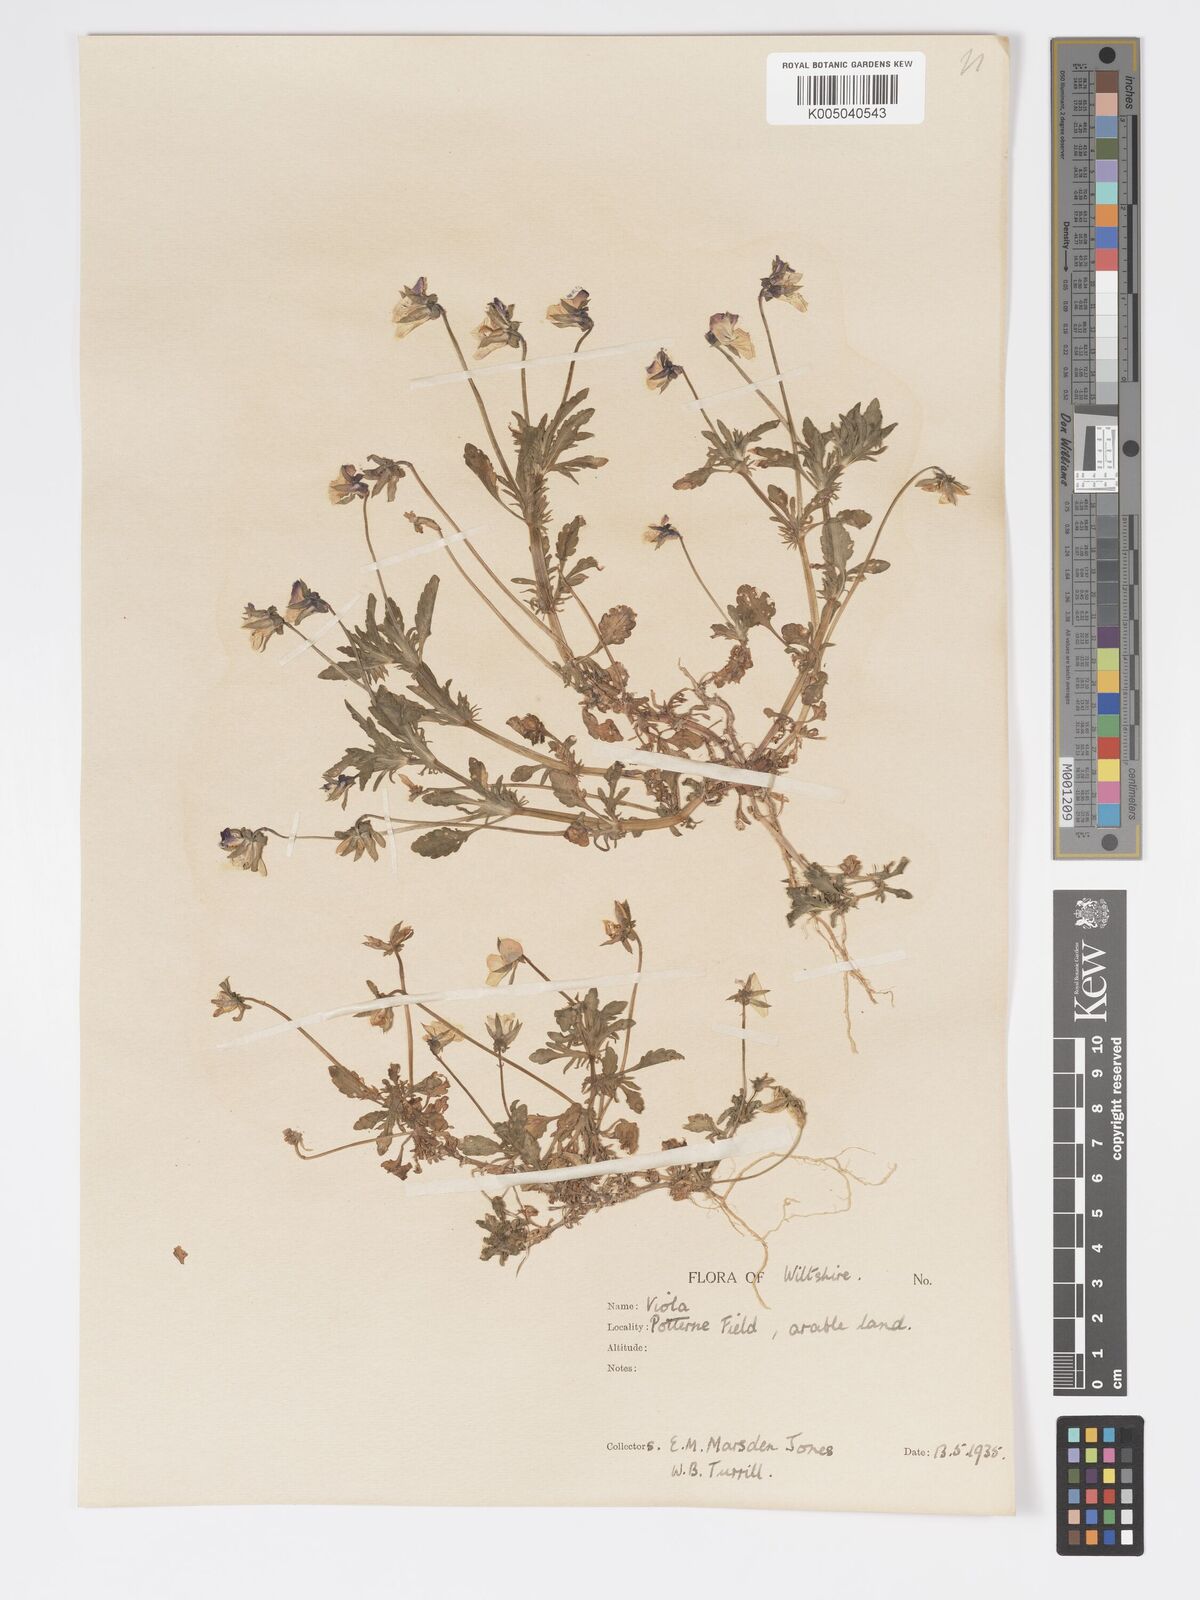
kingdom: Plantae
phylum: Tracheophyta
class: Magnoliopsida
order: Malpighiales
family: Violaceae
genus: Viola
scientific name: Viola
